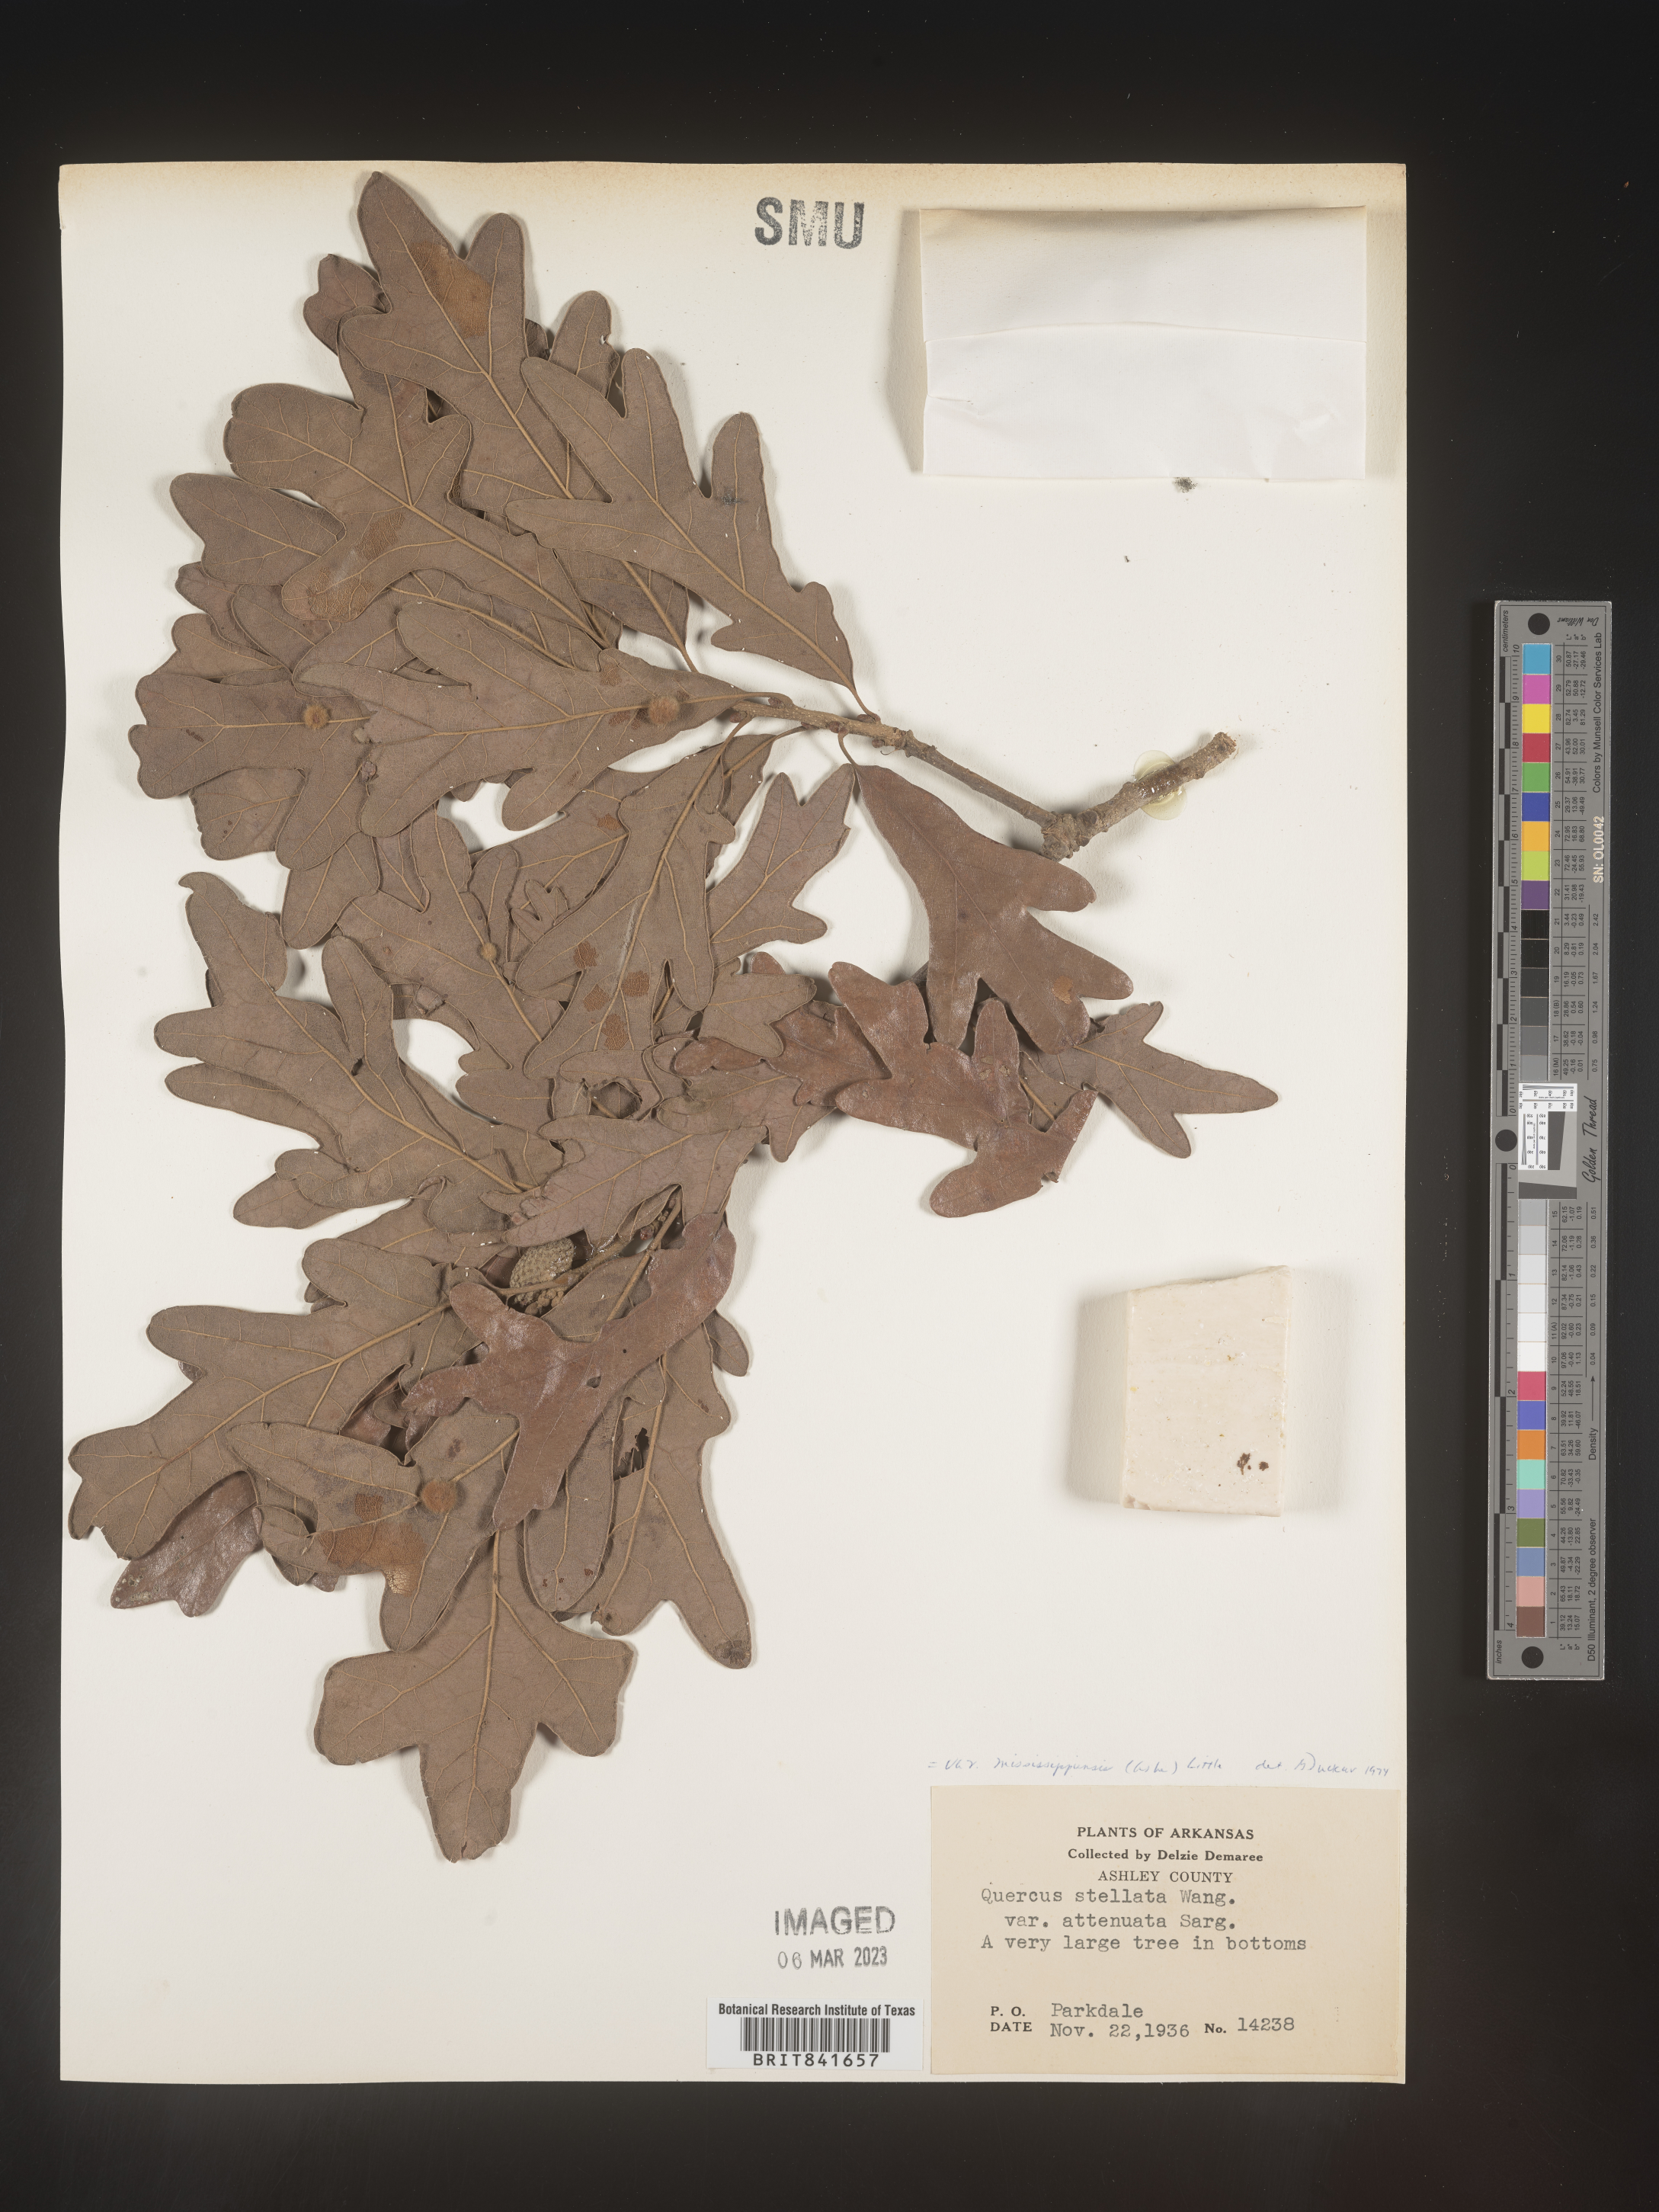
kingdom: Plantae
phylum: Tracheophyta
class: Magnoliopsida
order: Fagales
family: Fagaceae
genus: Quercus
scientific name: Quercus stellata
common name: Post oak
